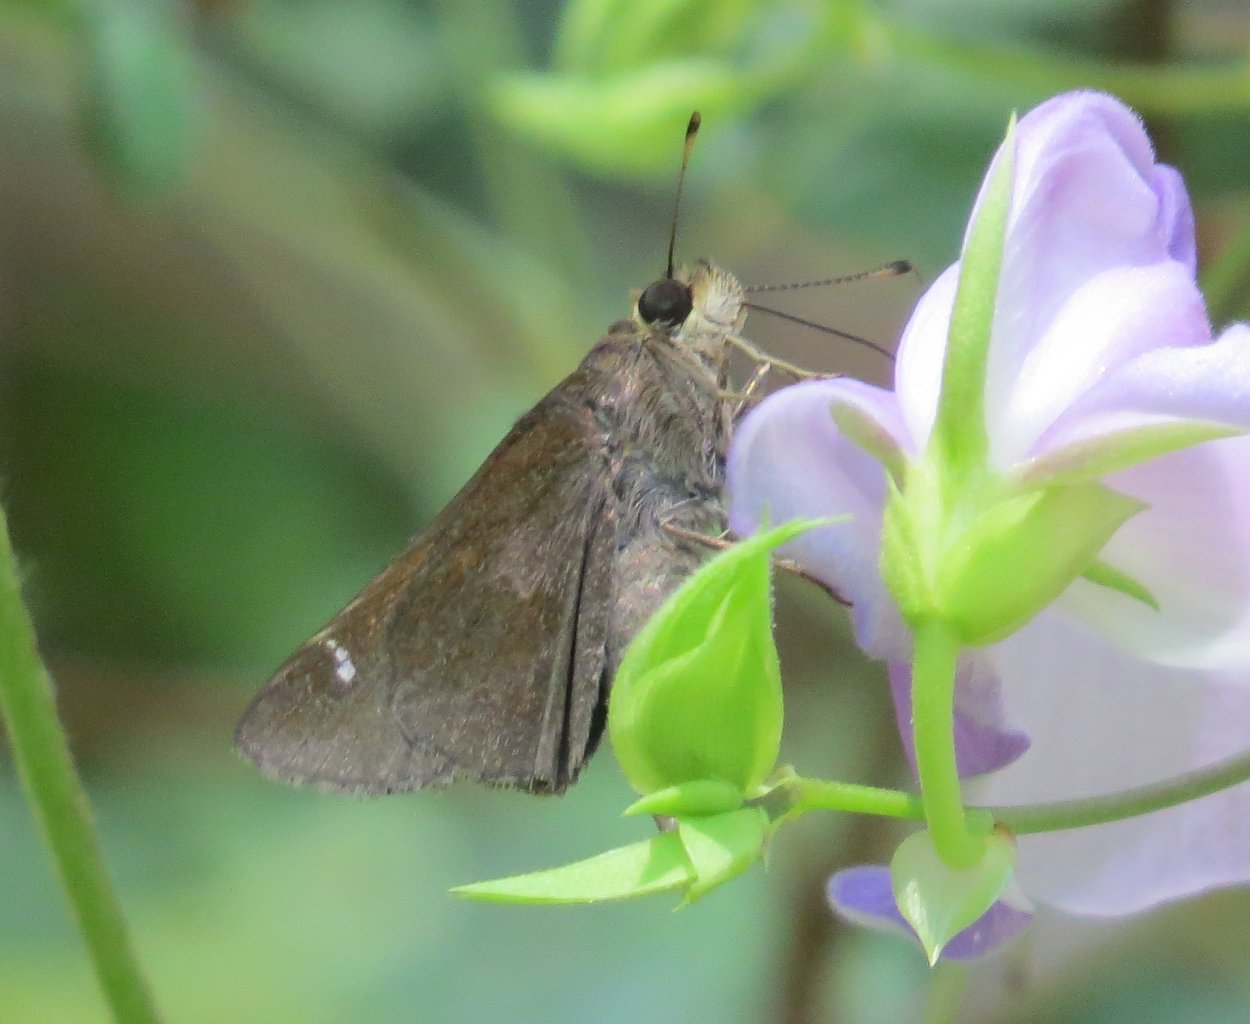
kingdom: Animalia
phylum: Arthropoda
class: Insecta
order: Lepidoptera
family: Hesperiidae
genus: Lerema
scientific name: Lerema accius
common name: Clouded Skipper
